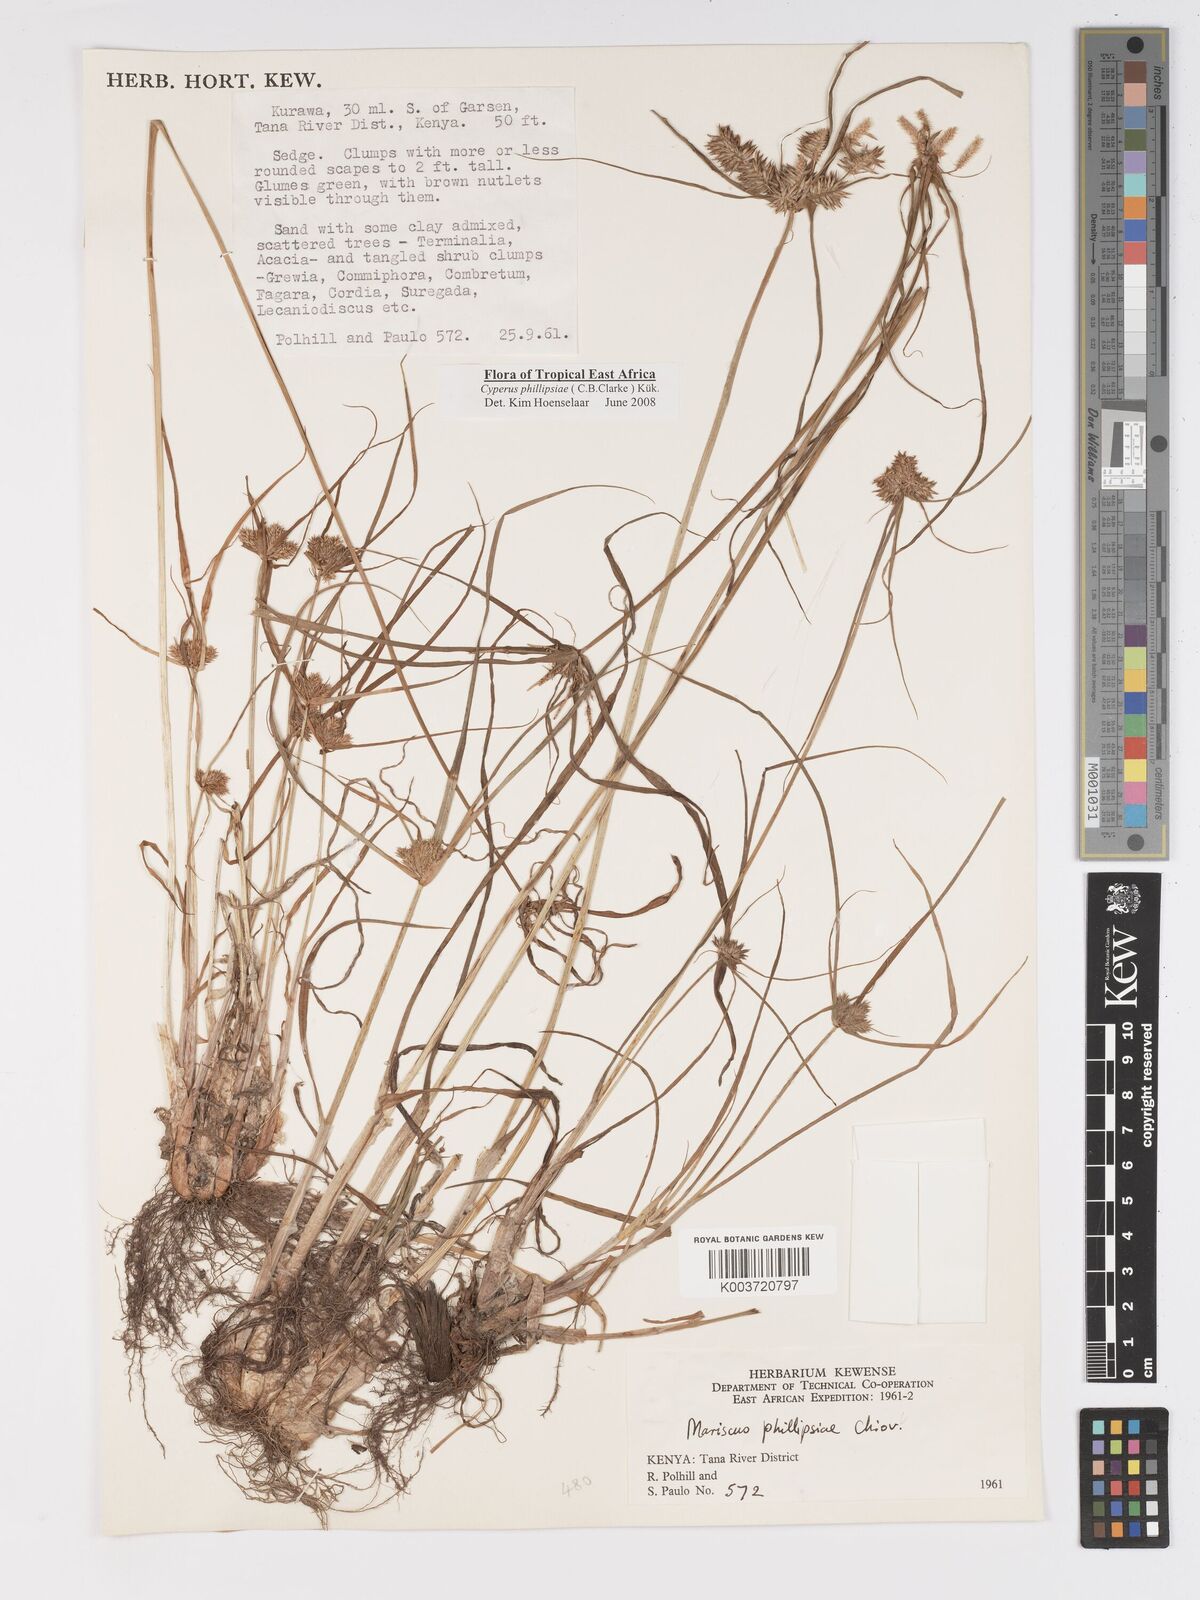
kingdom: Plantae
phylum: Tracheophyta
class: Liliopsida
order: Poales
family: Cyperaceae
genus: Cyperus
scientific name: Cyperus phillipsiae
